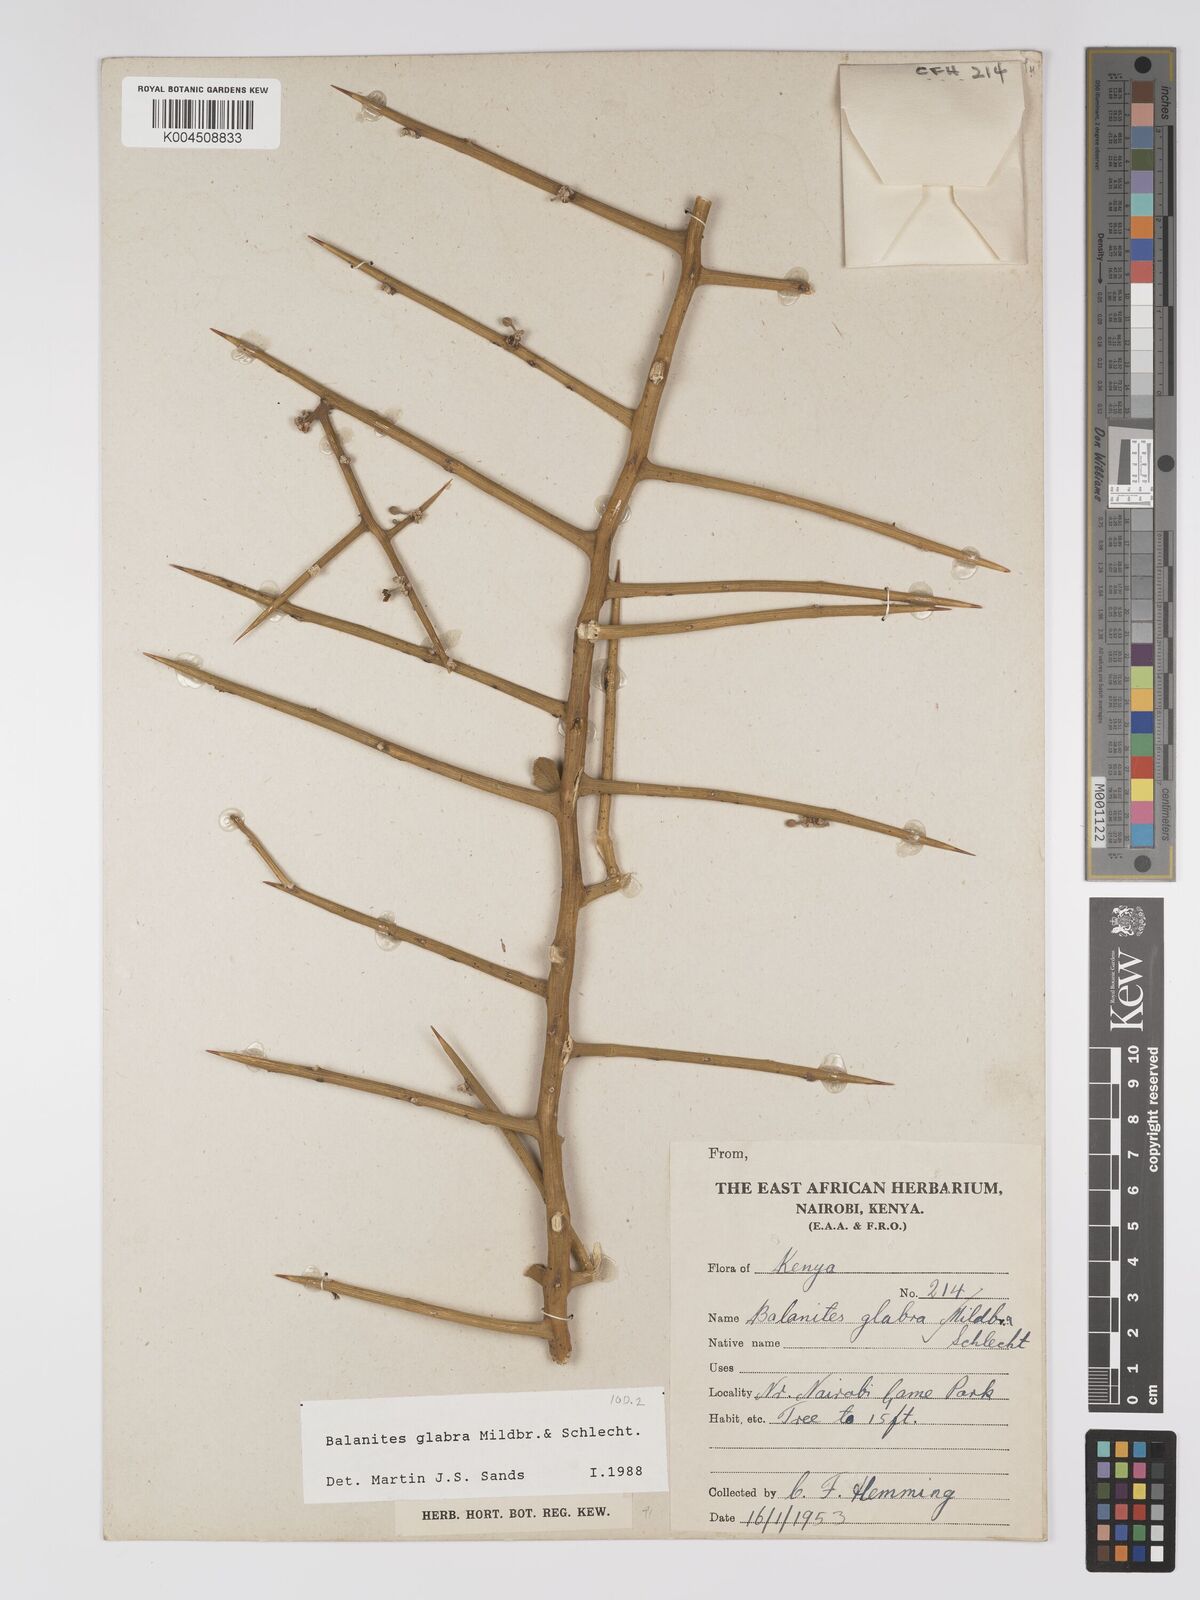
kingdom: Plantae
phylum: Tracheophyta
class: Magnoliopsida
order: Zygophyllales
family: Zygophyllaceae
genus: Balanites
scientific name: Balanites glabra
